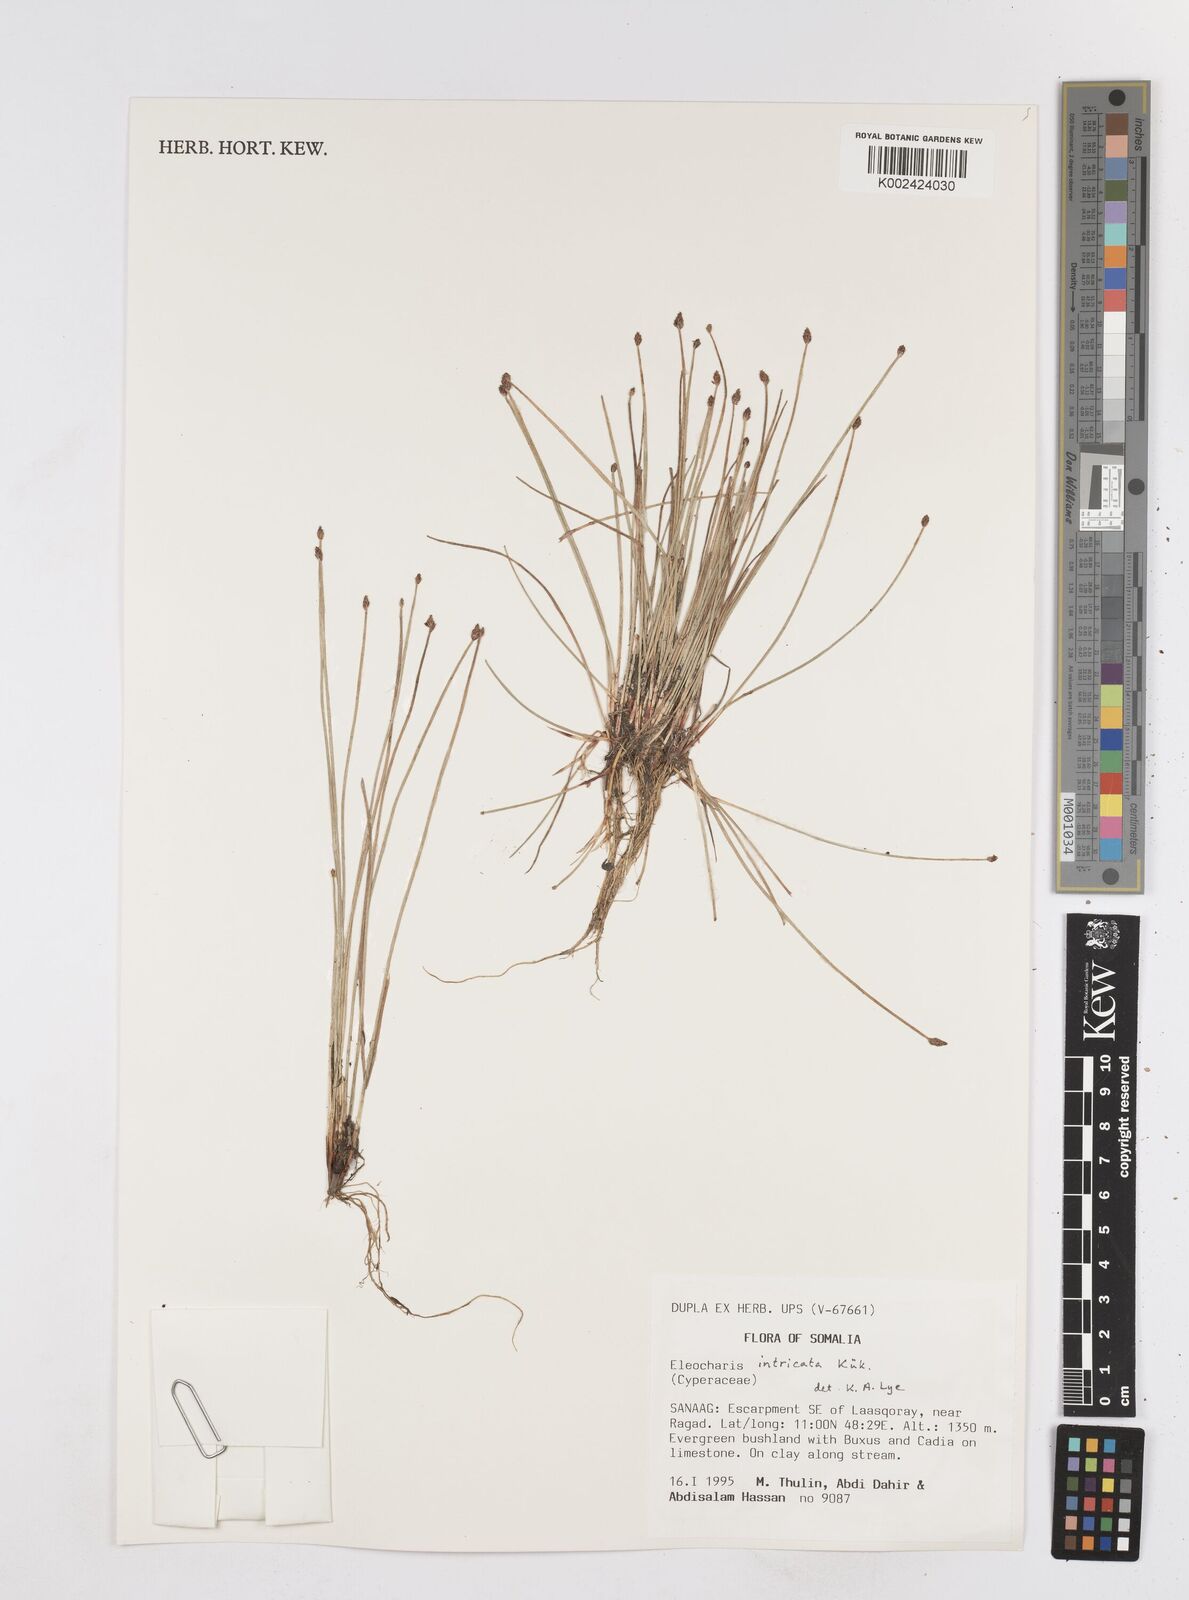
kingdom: Plantae
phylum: Tracheophyta
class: Liliopsida
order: Poales
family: Cyperaceae
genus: Eleocharis
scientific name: Eleocharis caduca
